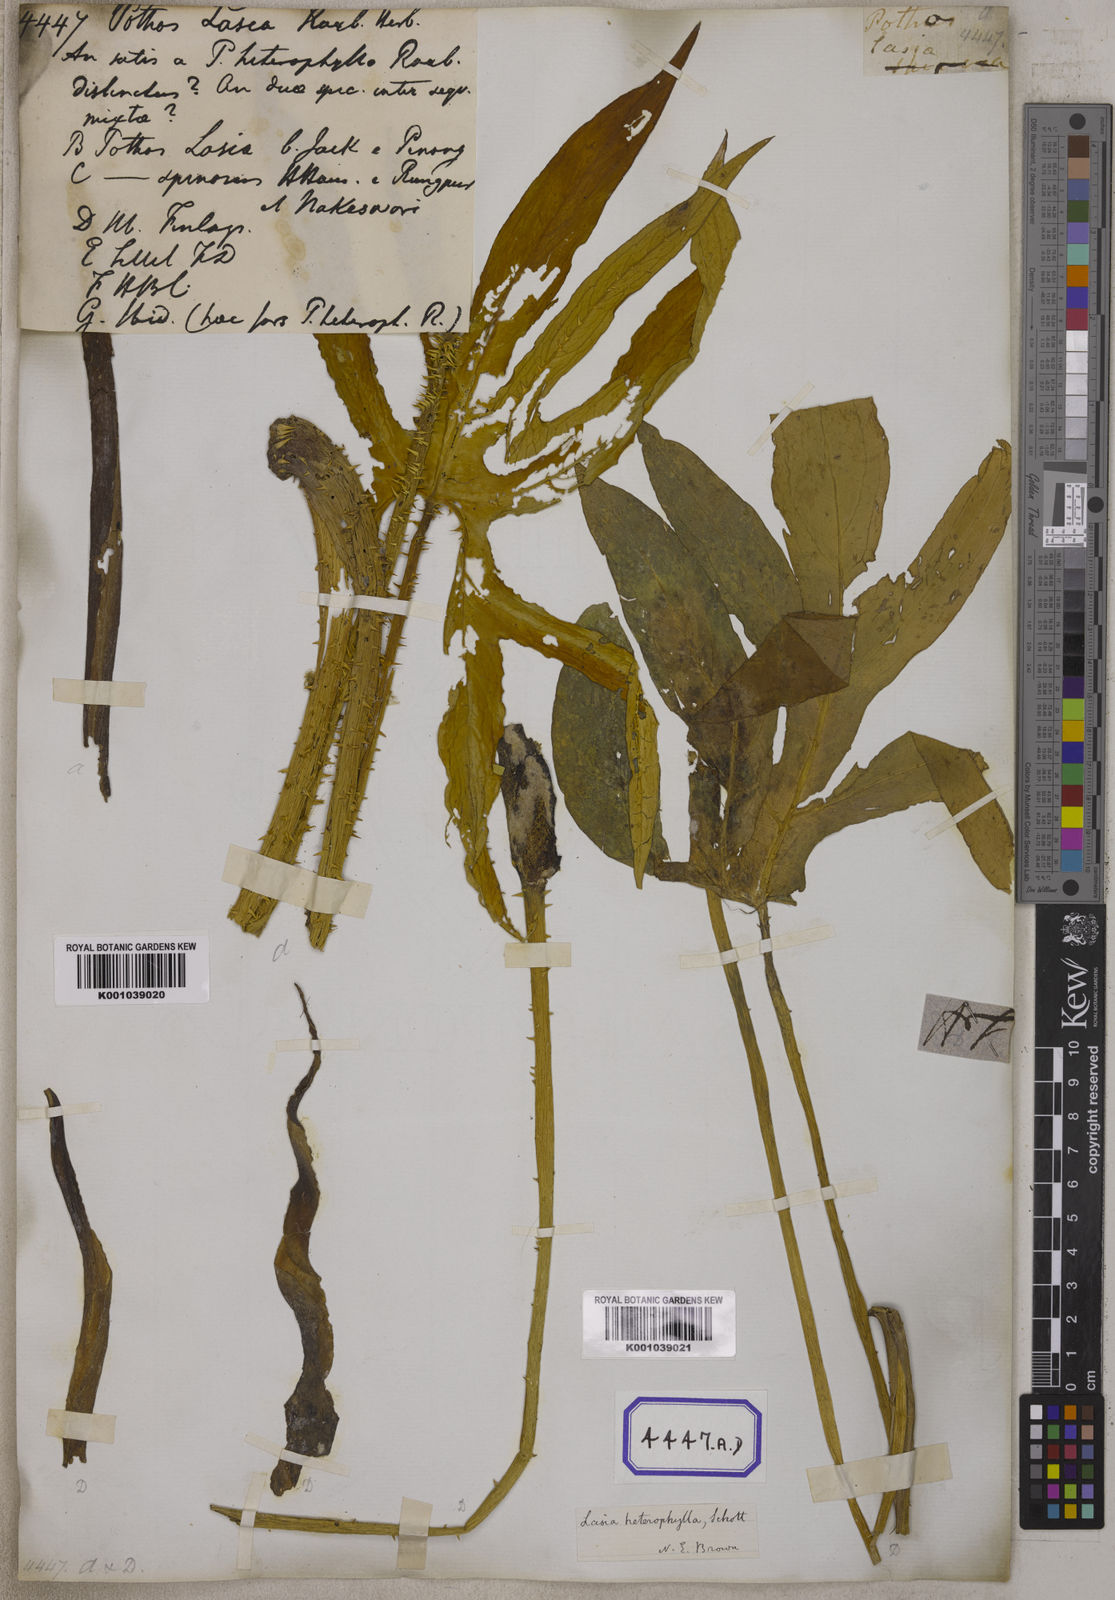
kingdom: Plantae
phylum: Tracheophyta
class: Liliopsida
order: Alismatales
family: Araceae
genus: Lasia
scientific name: Lasia spinosa
